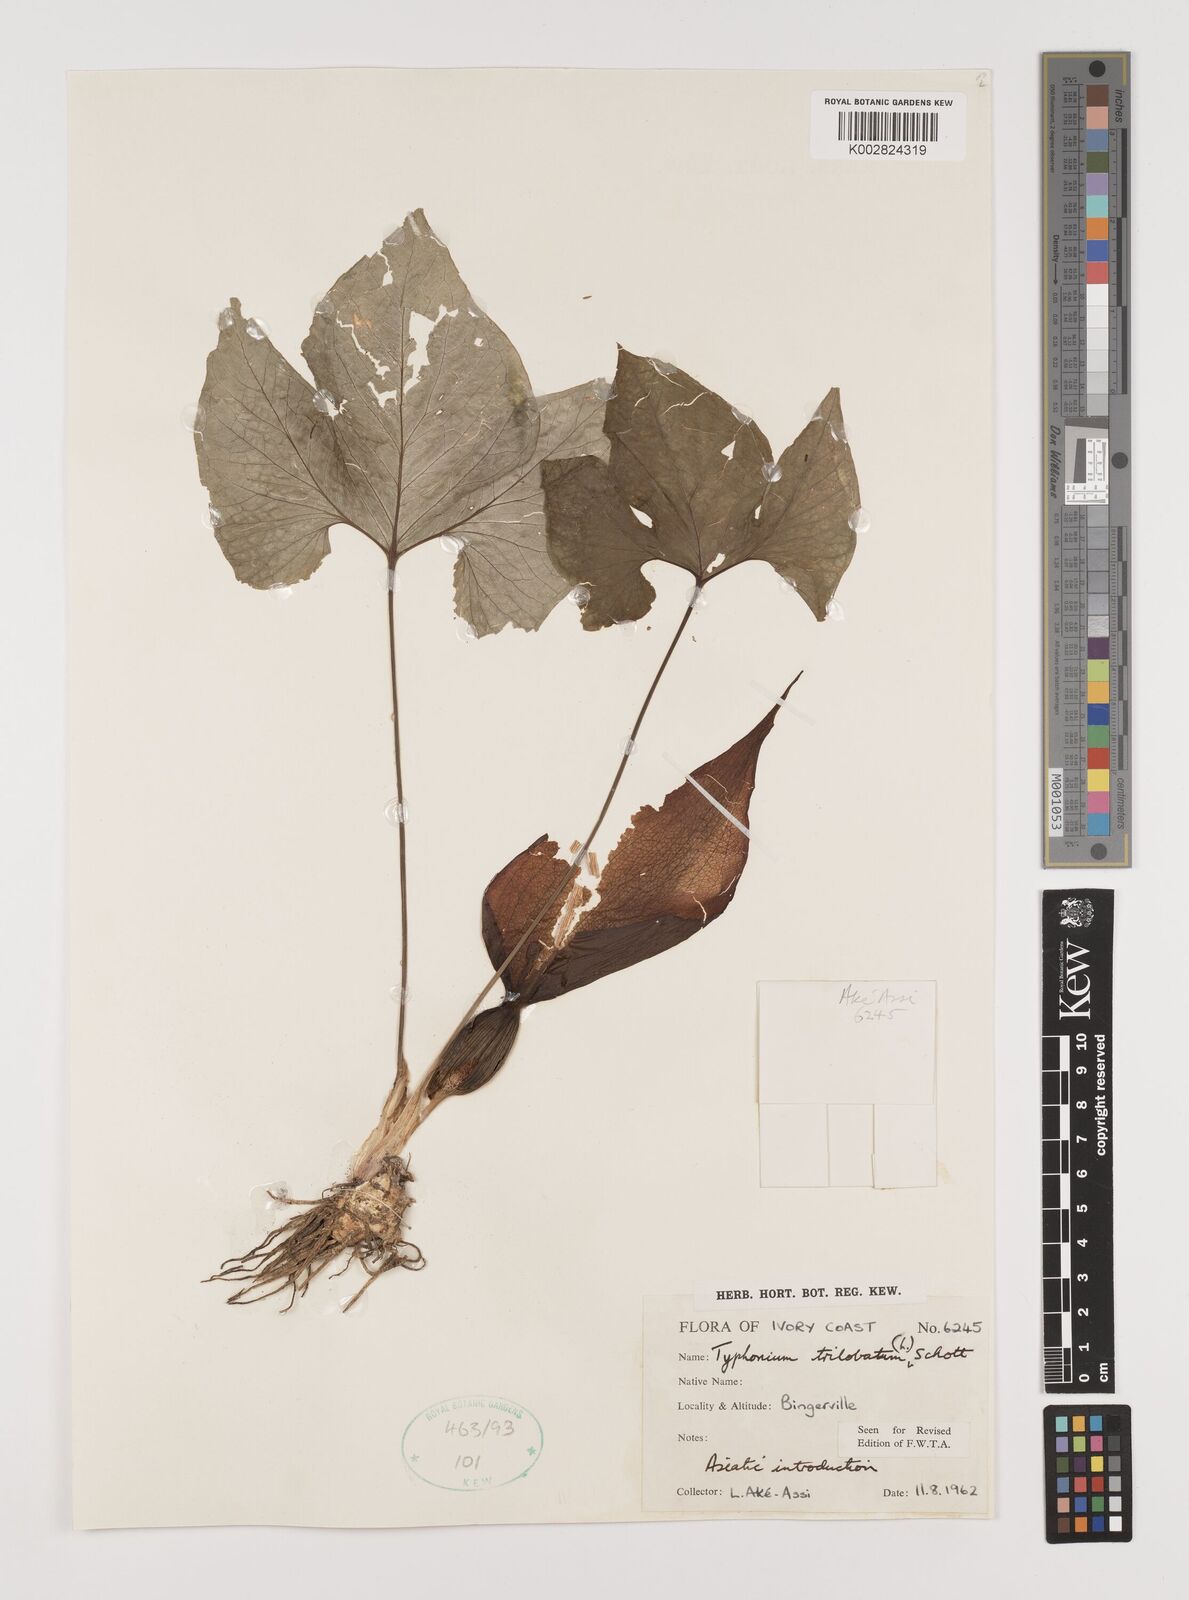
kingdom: Plantae
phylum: Tracheophyta
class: Liliopsida
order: Alismatales
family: Araceae
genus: Typhonium
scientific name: Typhonium trilobatum
